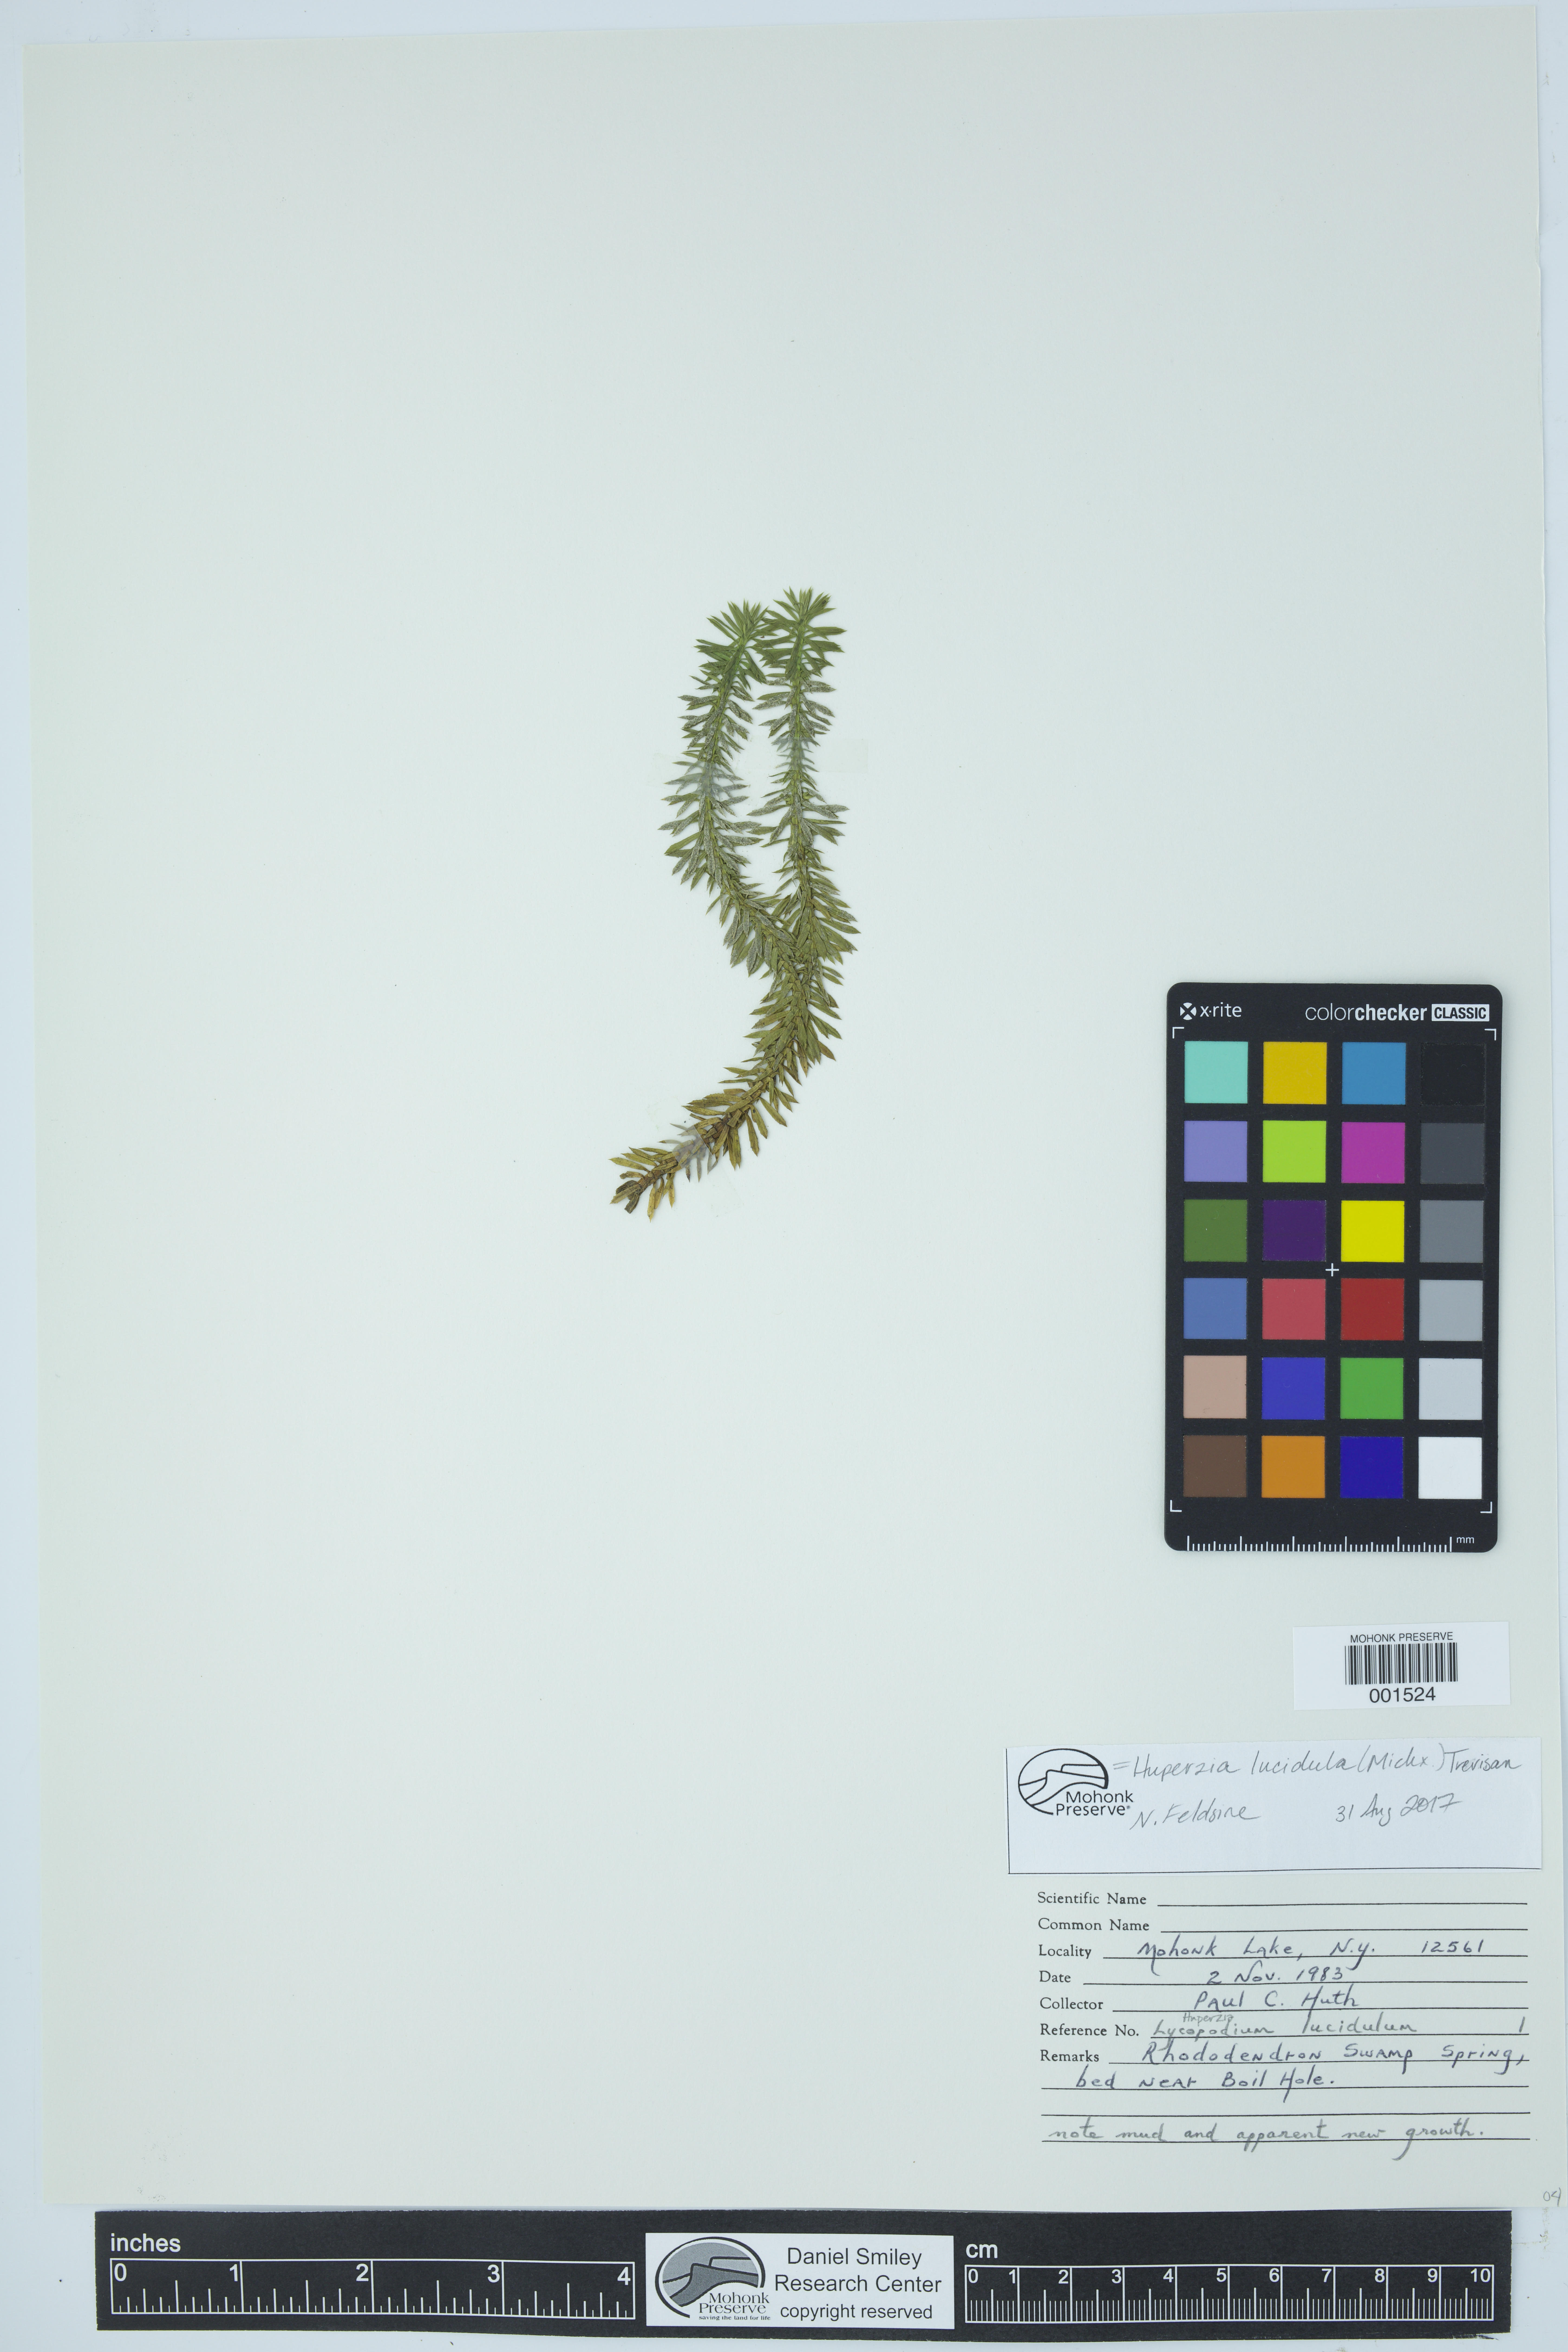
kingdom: Plantae
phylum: Tracheophyta
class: Lycopodiopsida
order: Lycopodiales
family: Lycopodiaceae
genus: Huperzia
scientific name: Huperzia lucidula
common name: Shining clubmoss
